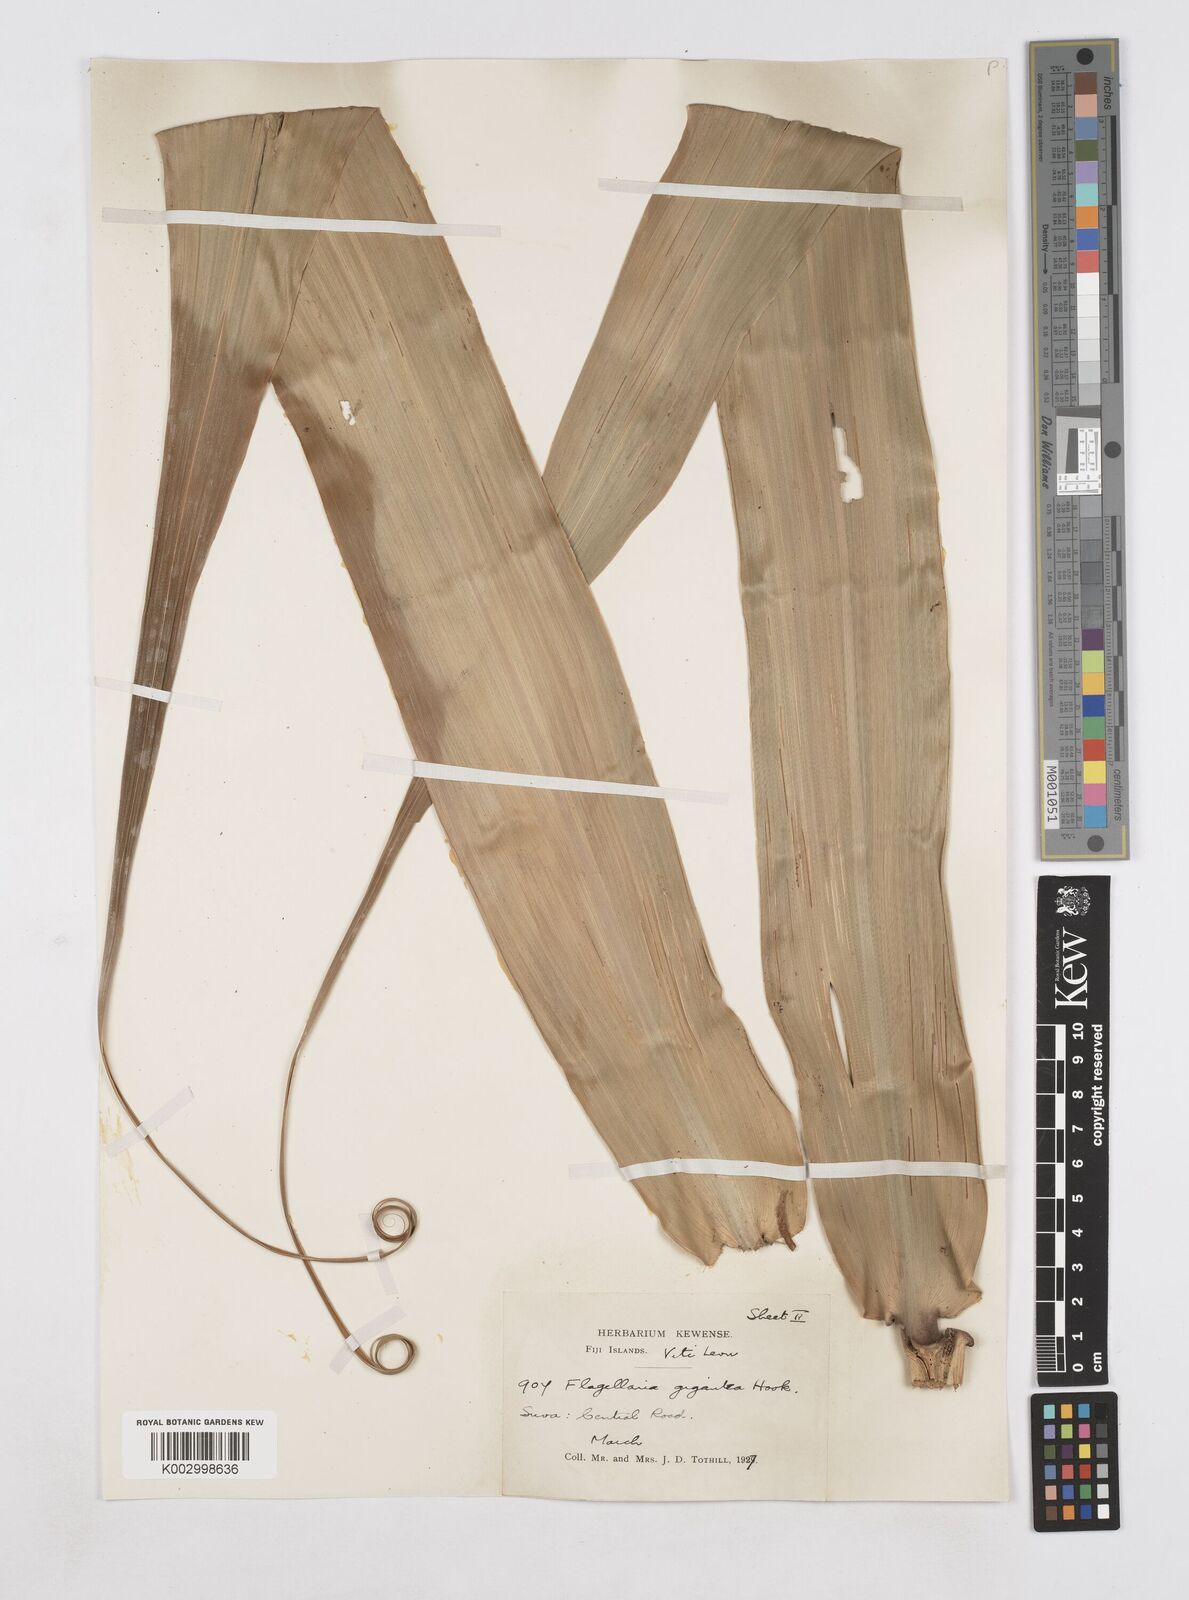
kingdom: Plantae
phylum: Tracheophyta
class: Liliopsida
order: Poales
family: Flagellariaceae
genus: Flagellaria
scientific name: Flagellaria gigantea
